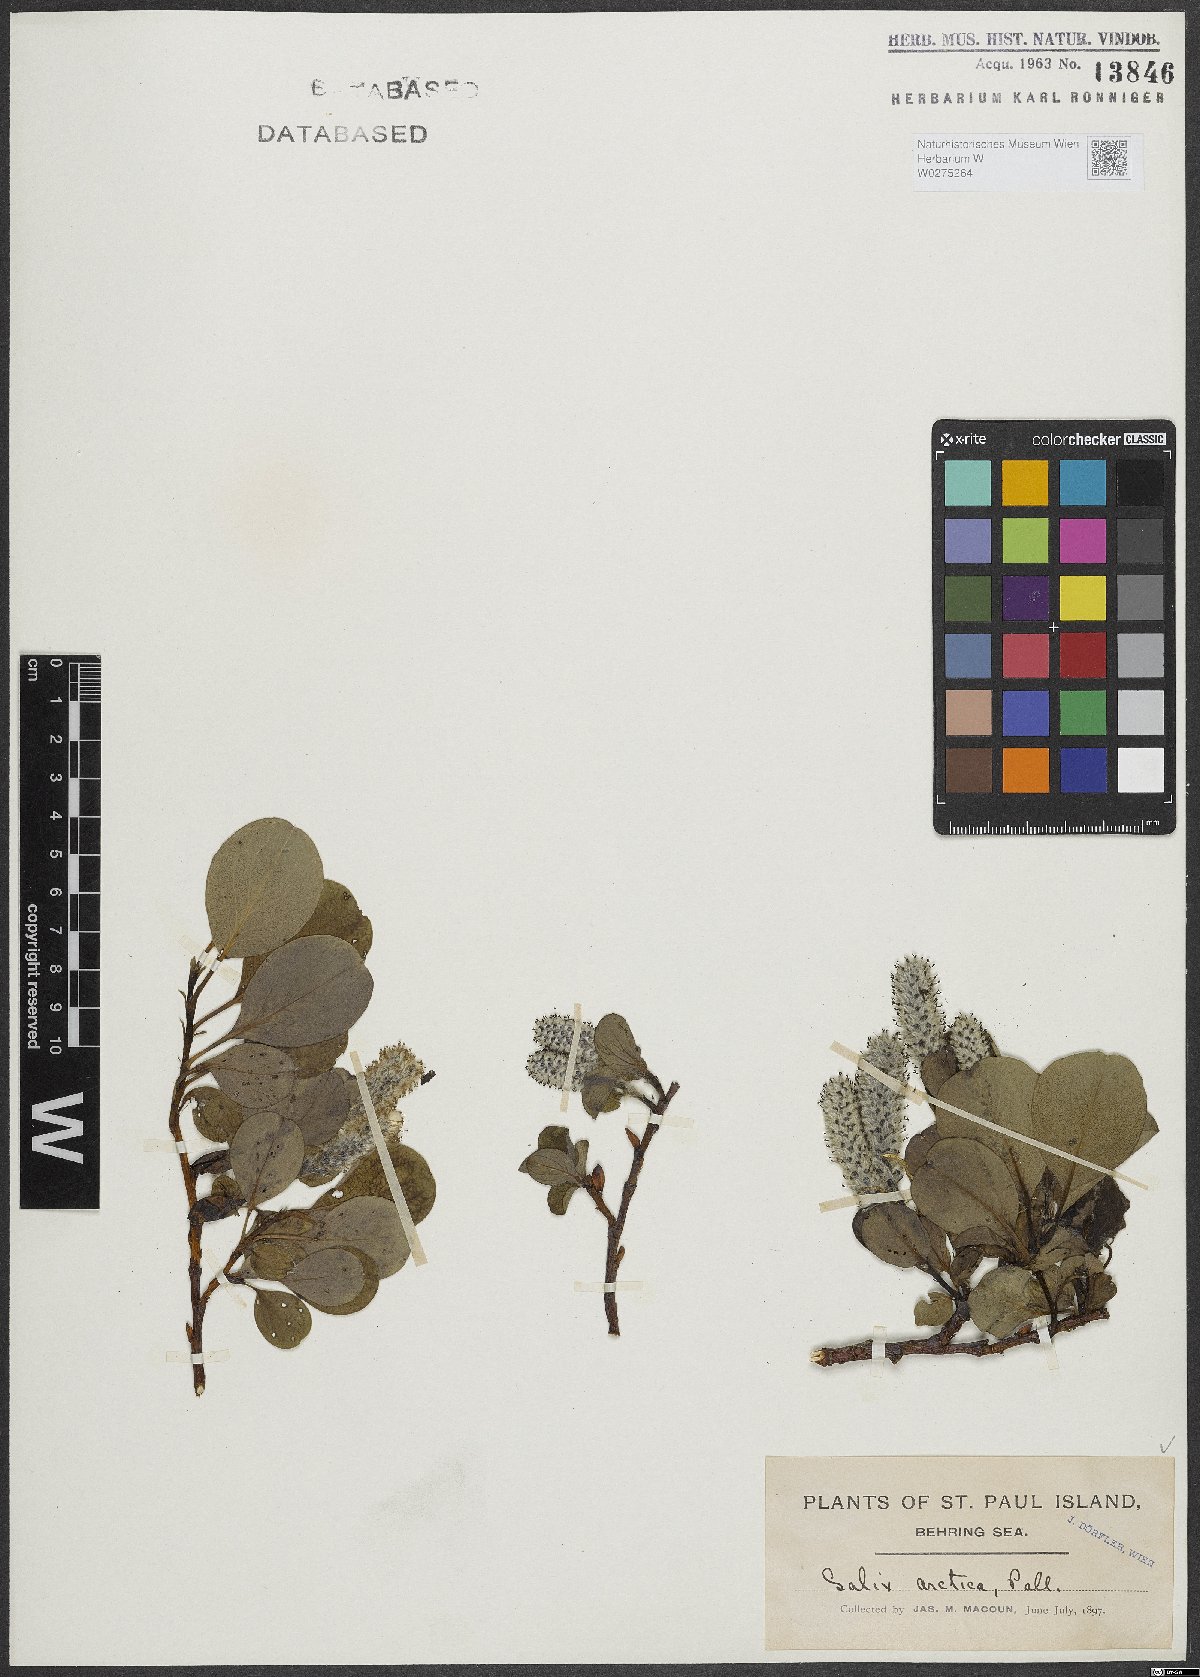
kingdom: Plantae
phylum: Tracheophyta
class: Magnoliopsida
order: Malpighiales
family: Salicaceae
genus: Salix
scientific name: Salix arctica
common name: Arctic willow
